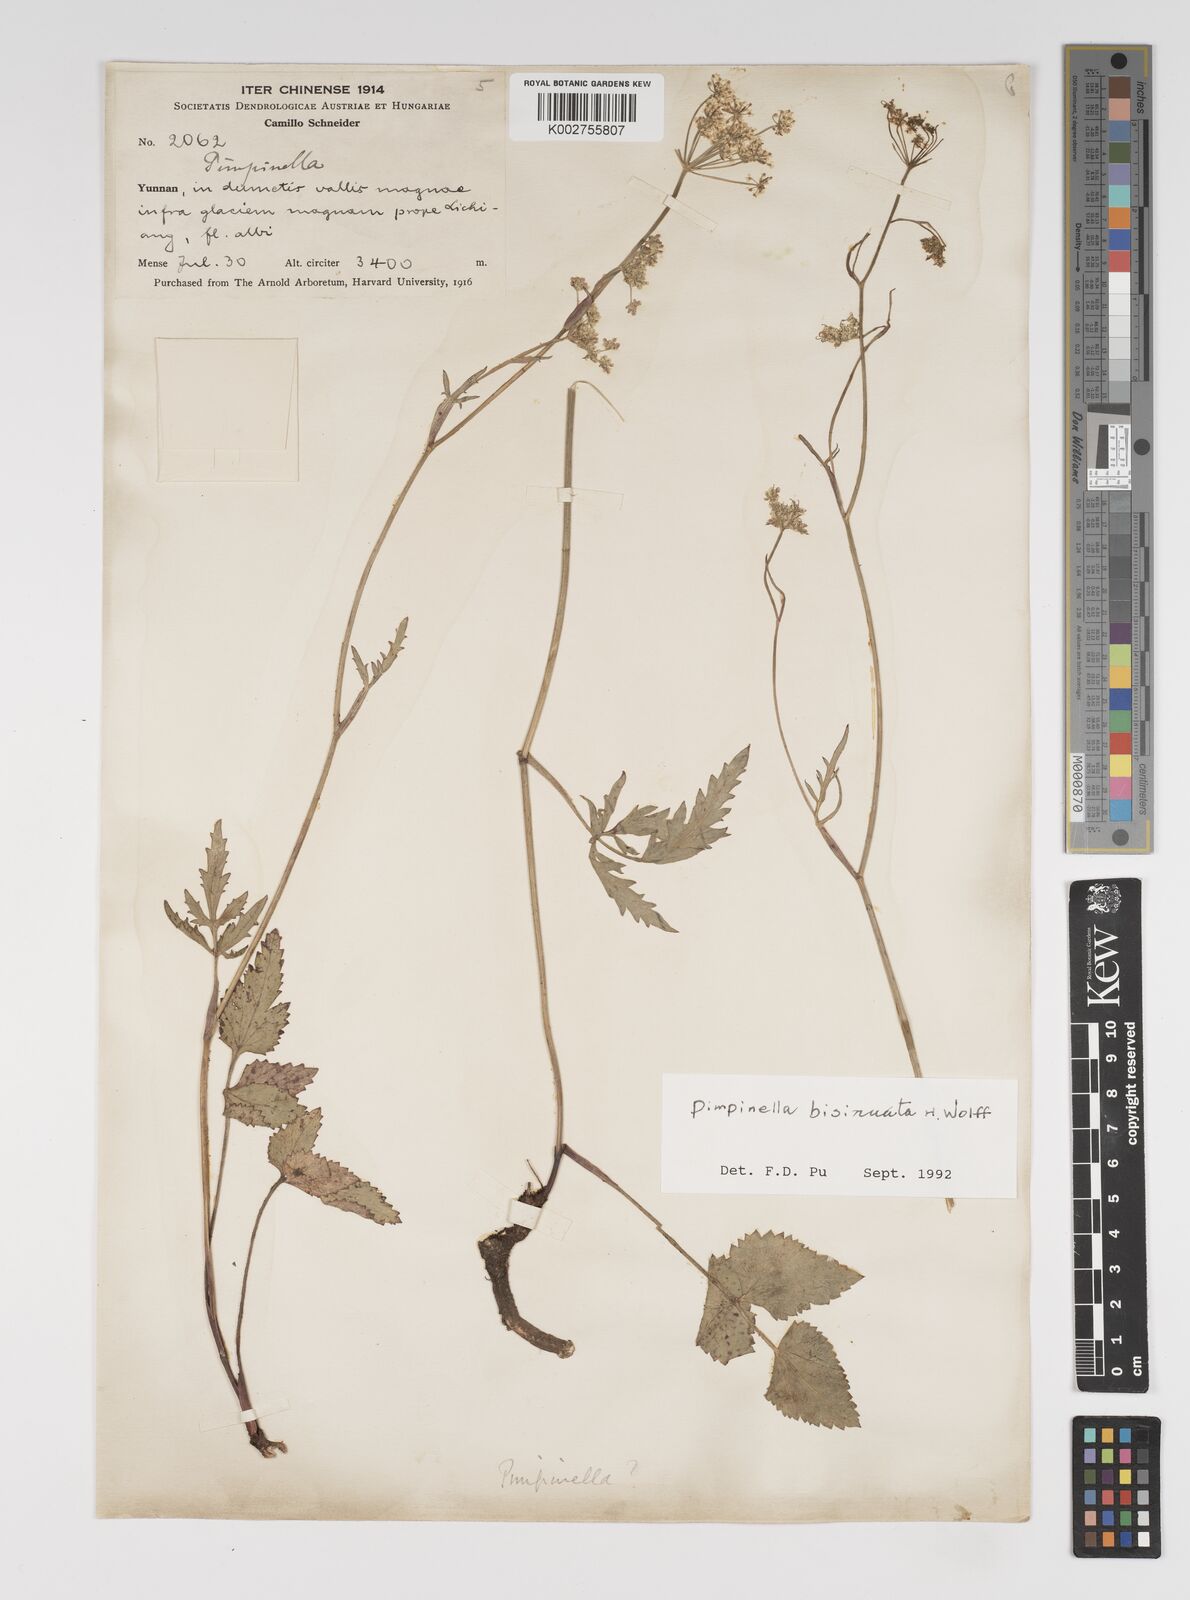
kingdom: Plantae
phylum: Tracheophyta
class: Magnoliopsida
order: Apiales
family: Apiaceae
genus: Pimpinella
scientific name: Pimpinella bisinuata
